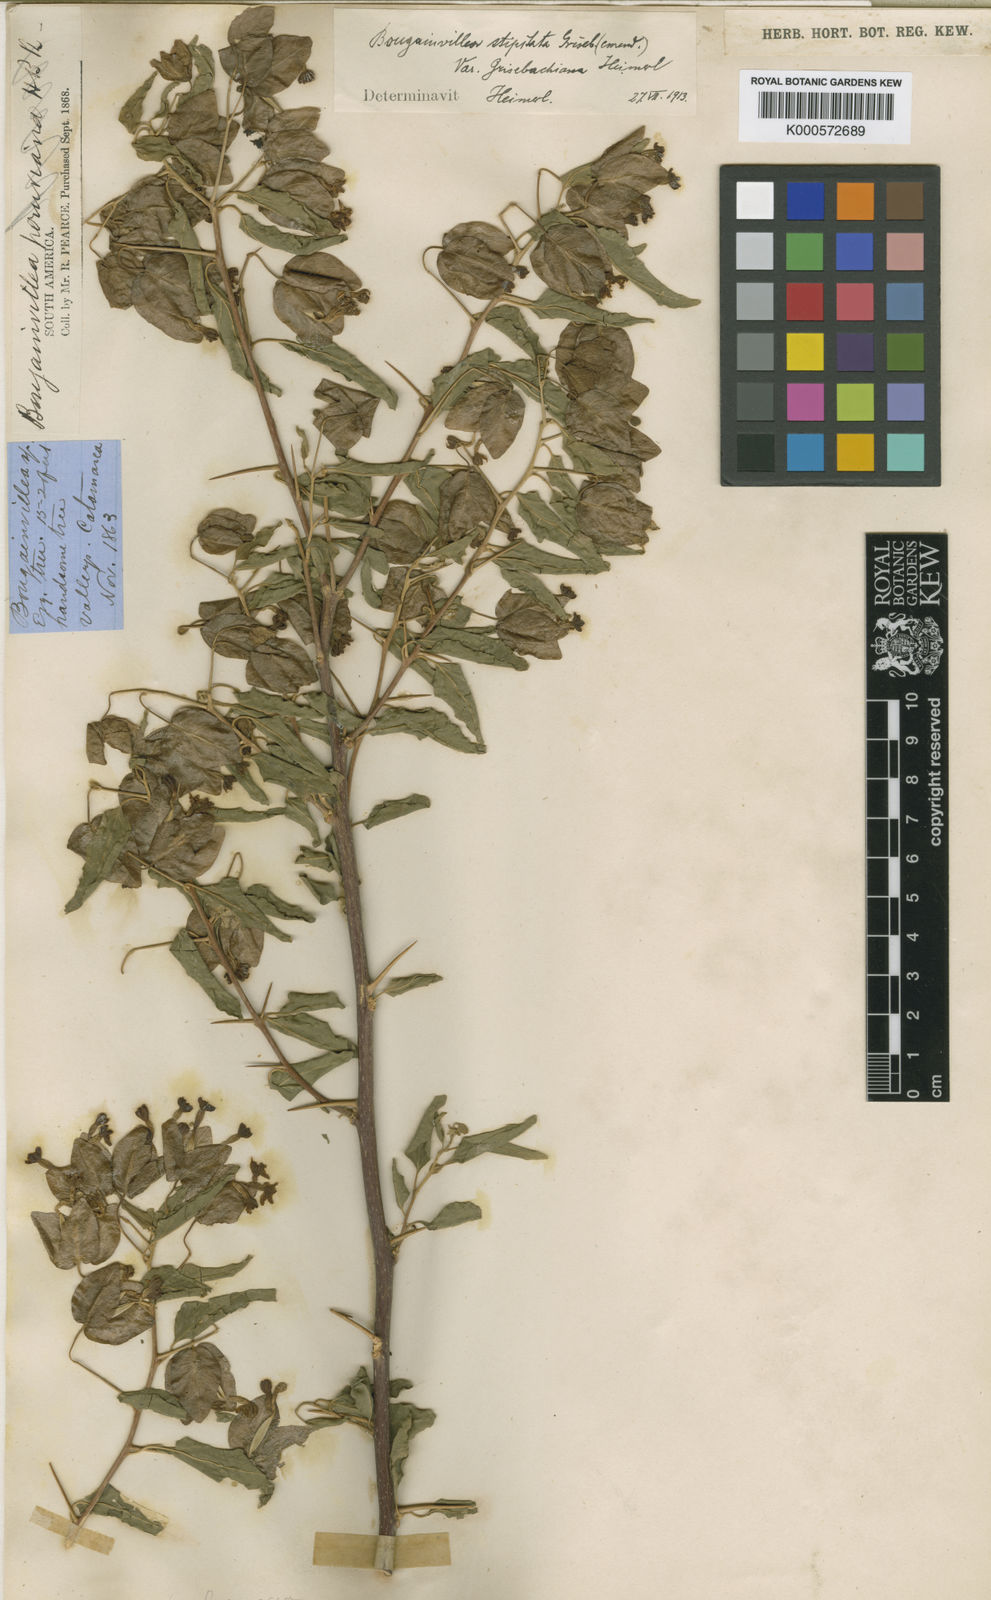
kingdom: Plantae
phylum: Tracheophyta
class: Magnoliopsida
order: Caryophyllales
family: Nyctaginaceae
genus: Bougainvillea
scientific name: Bougainvillea stipitata
